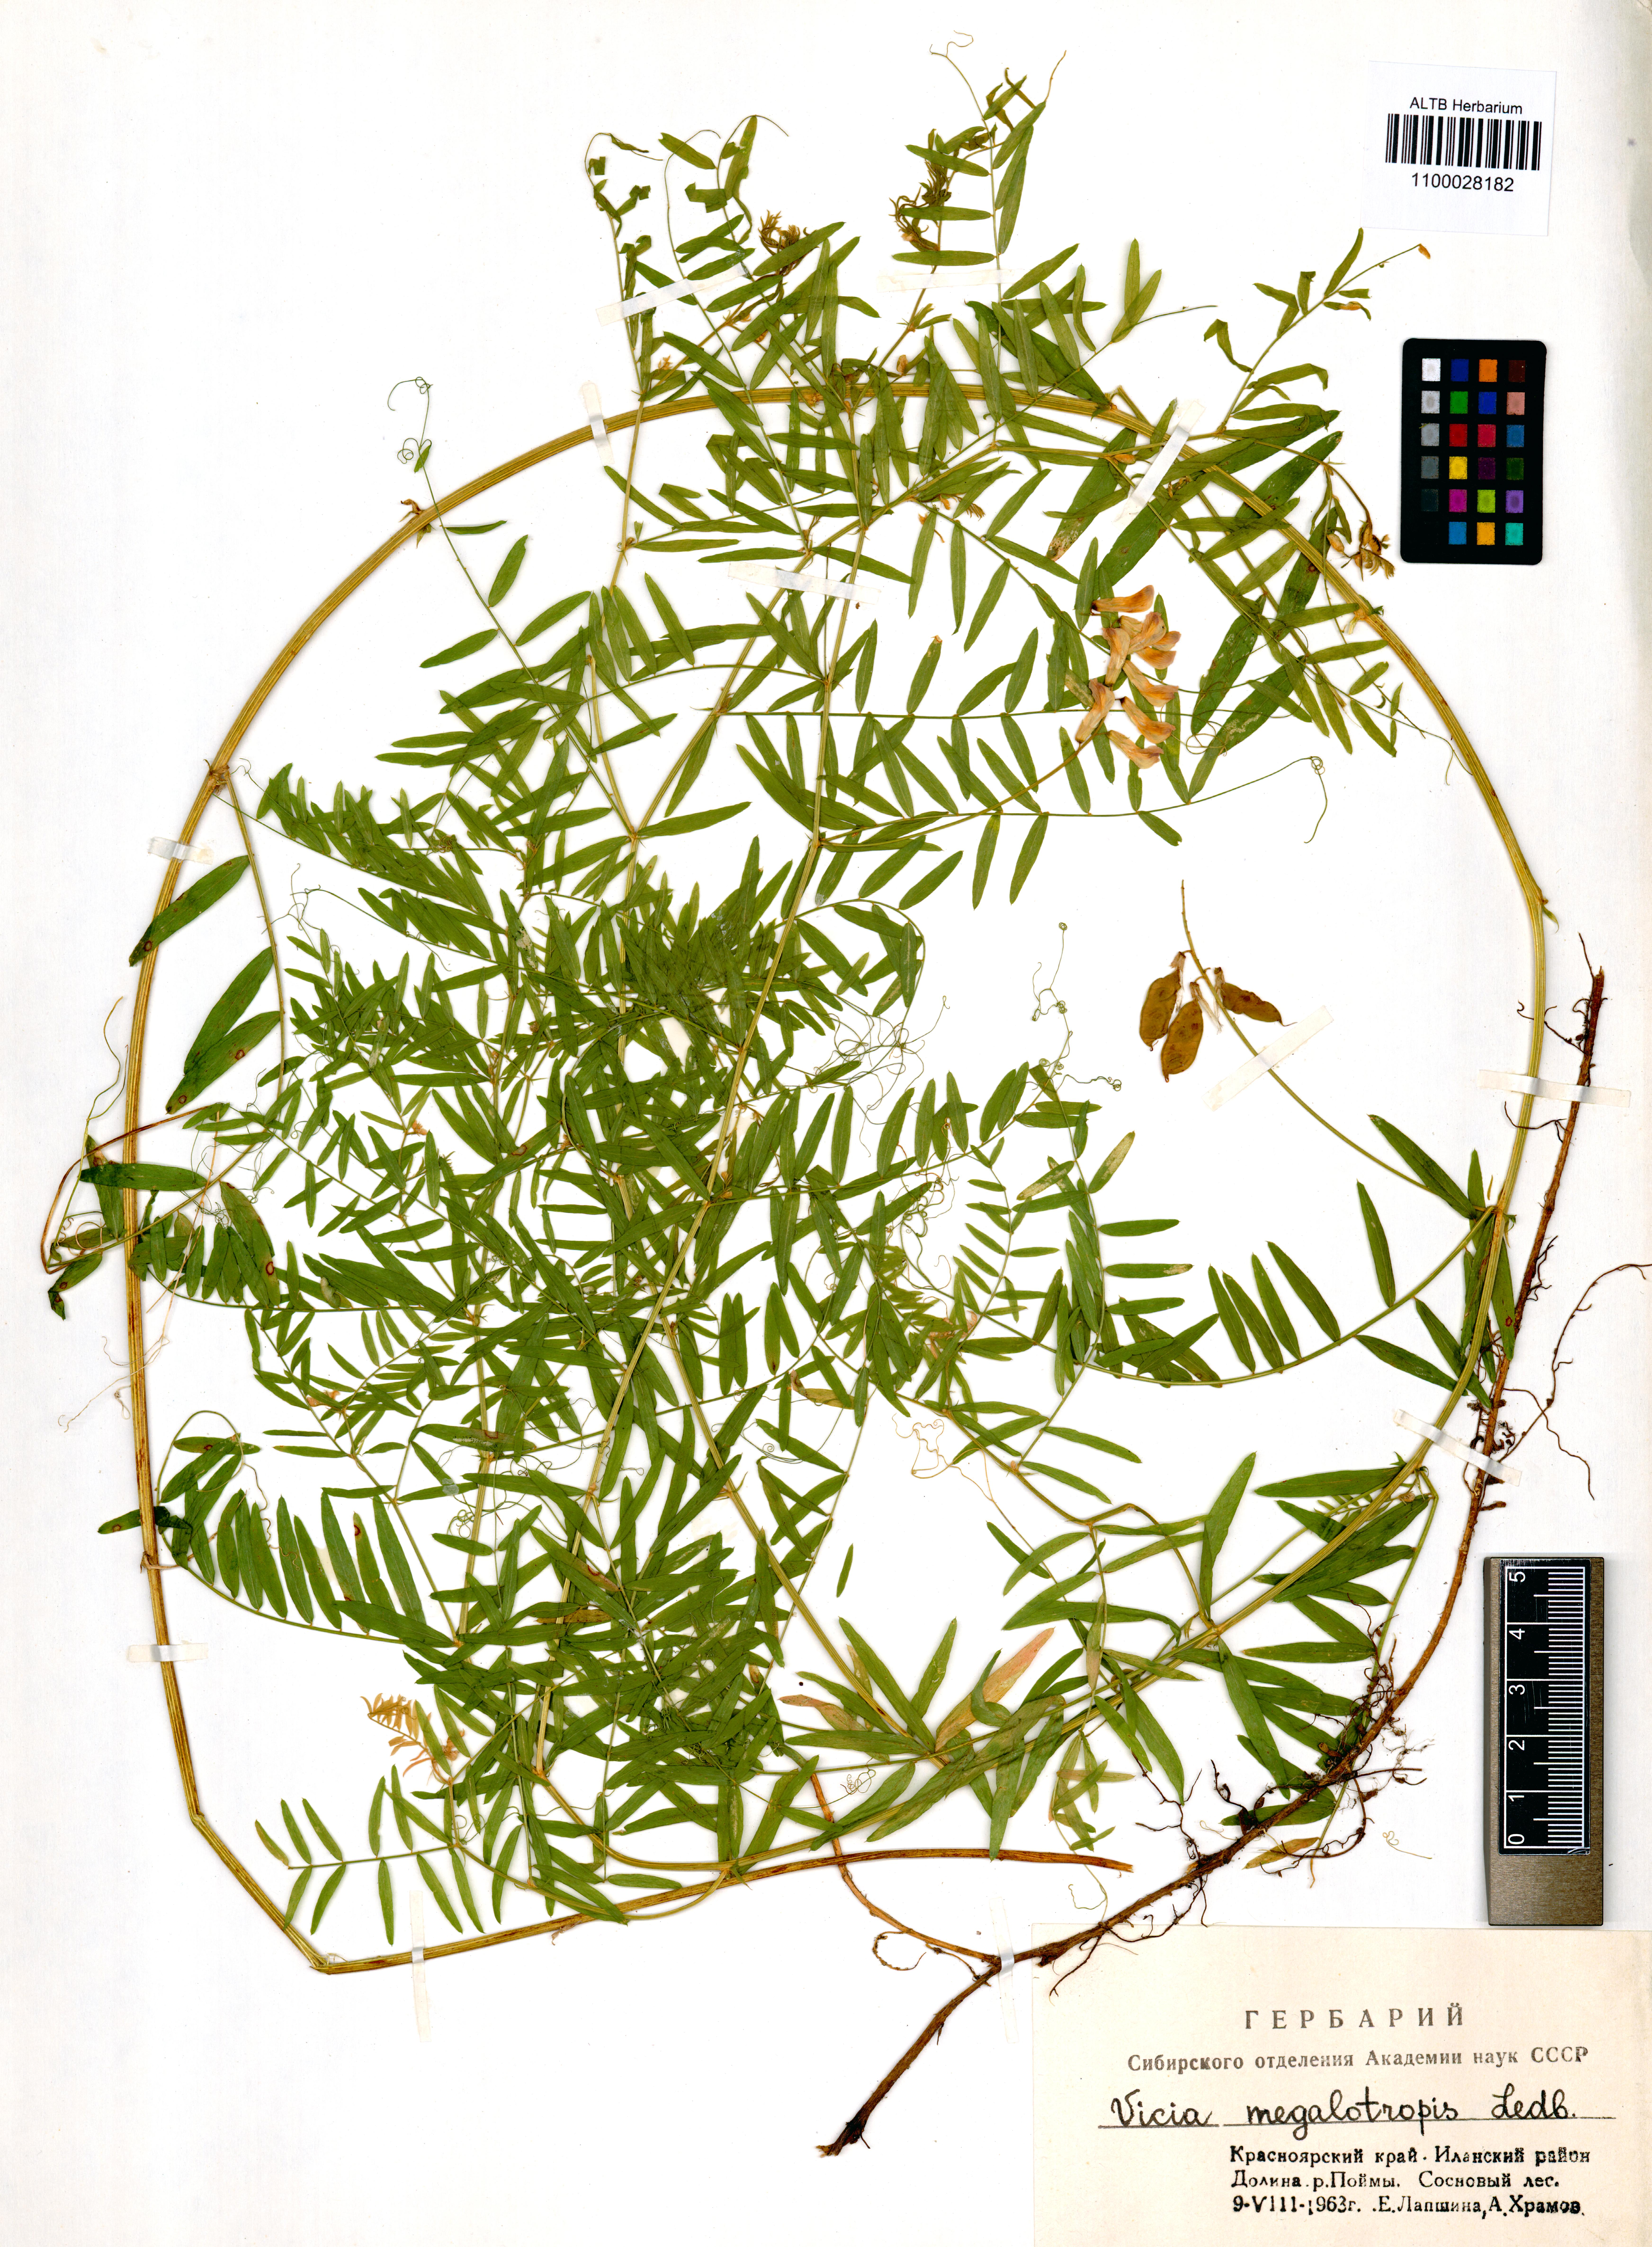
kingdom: Plantae
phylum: Tracheophyta
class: Magnoliopsida
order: Fabales
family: Fabaceae
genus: Vicia
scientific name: Vicia megalotropis
